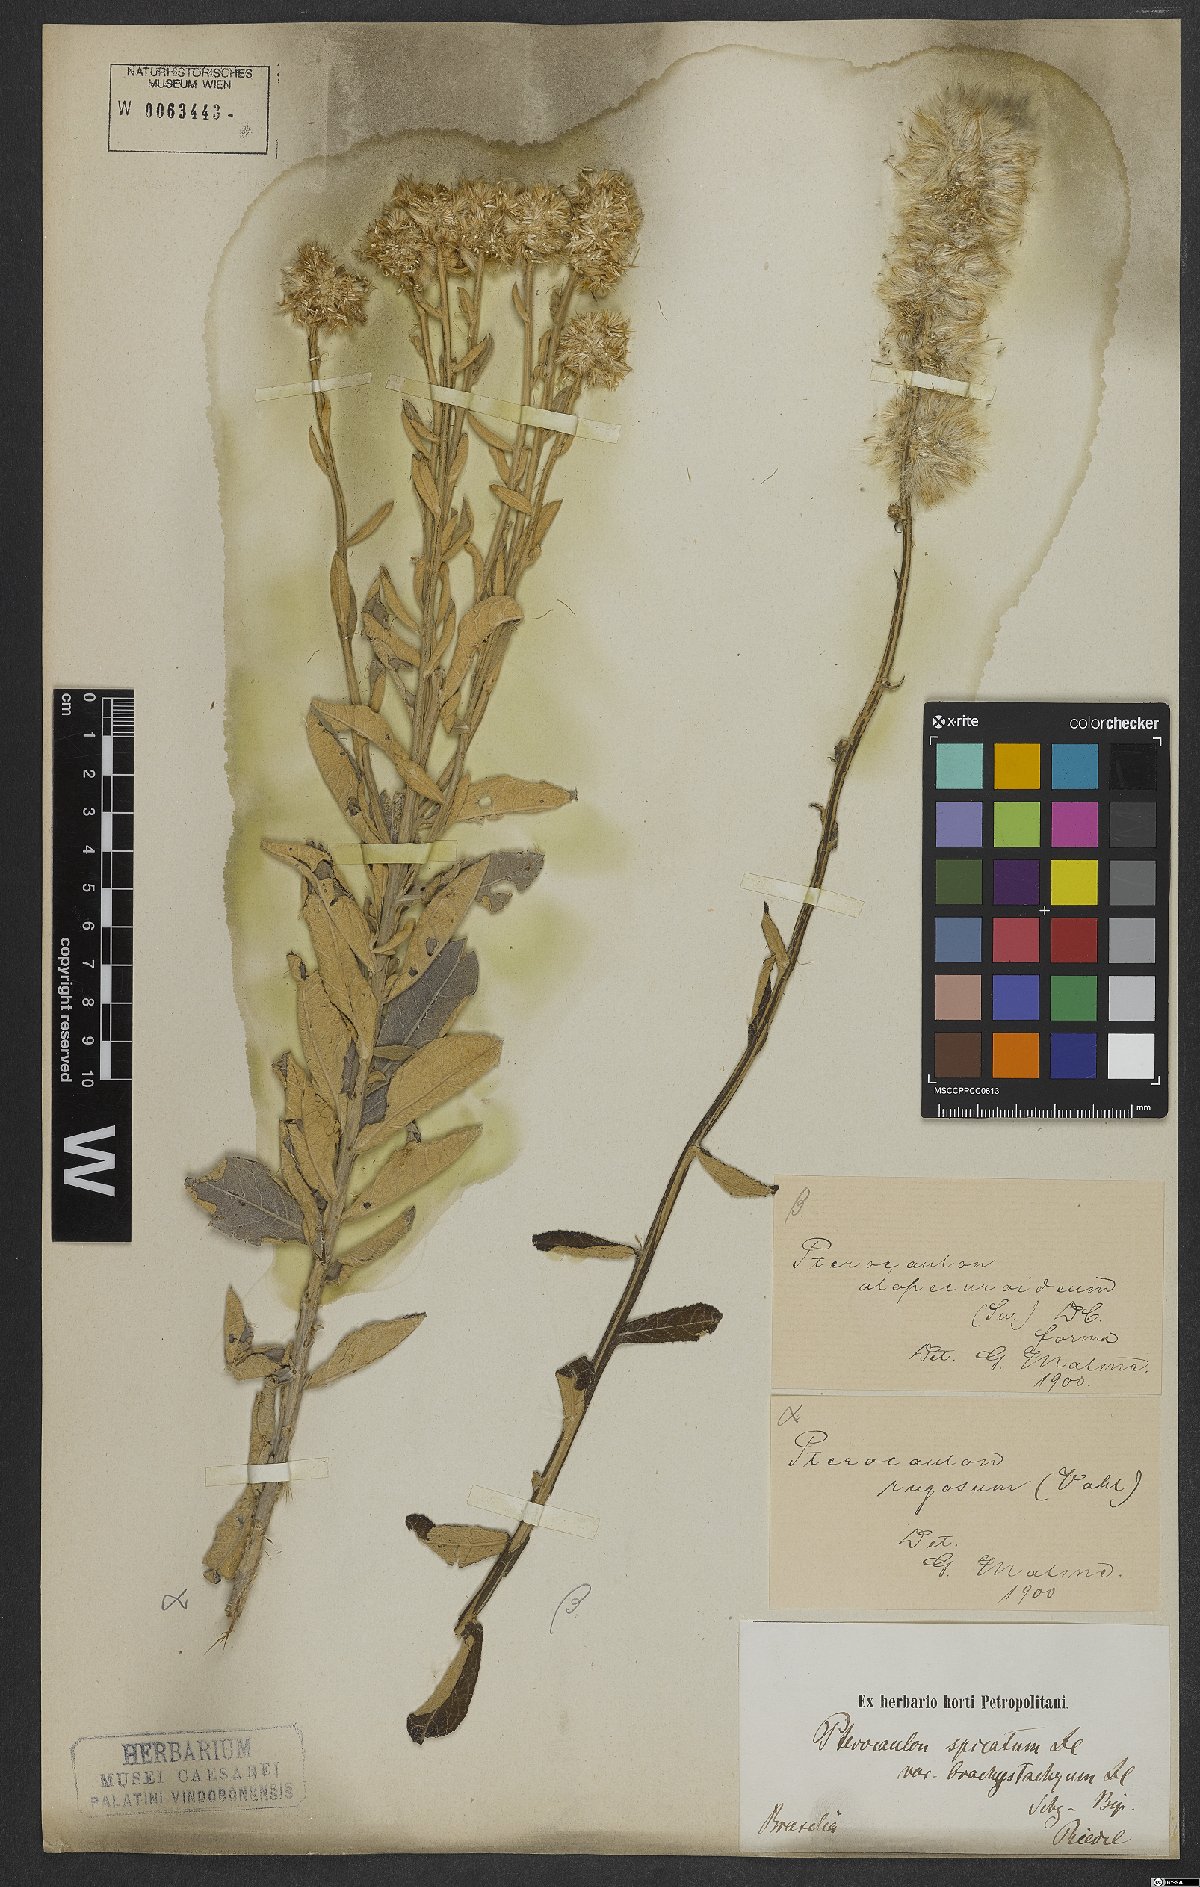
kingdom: Plantae
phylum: Tracheophyta
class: Magnoliopsida
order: Asterales
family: Asteraceae
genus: Pterocaulon
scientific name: Pterocaulon rugosum
